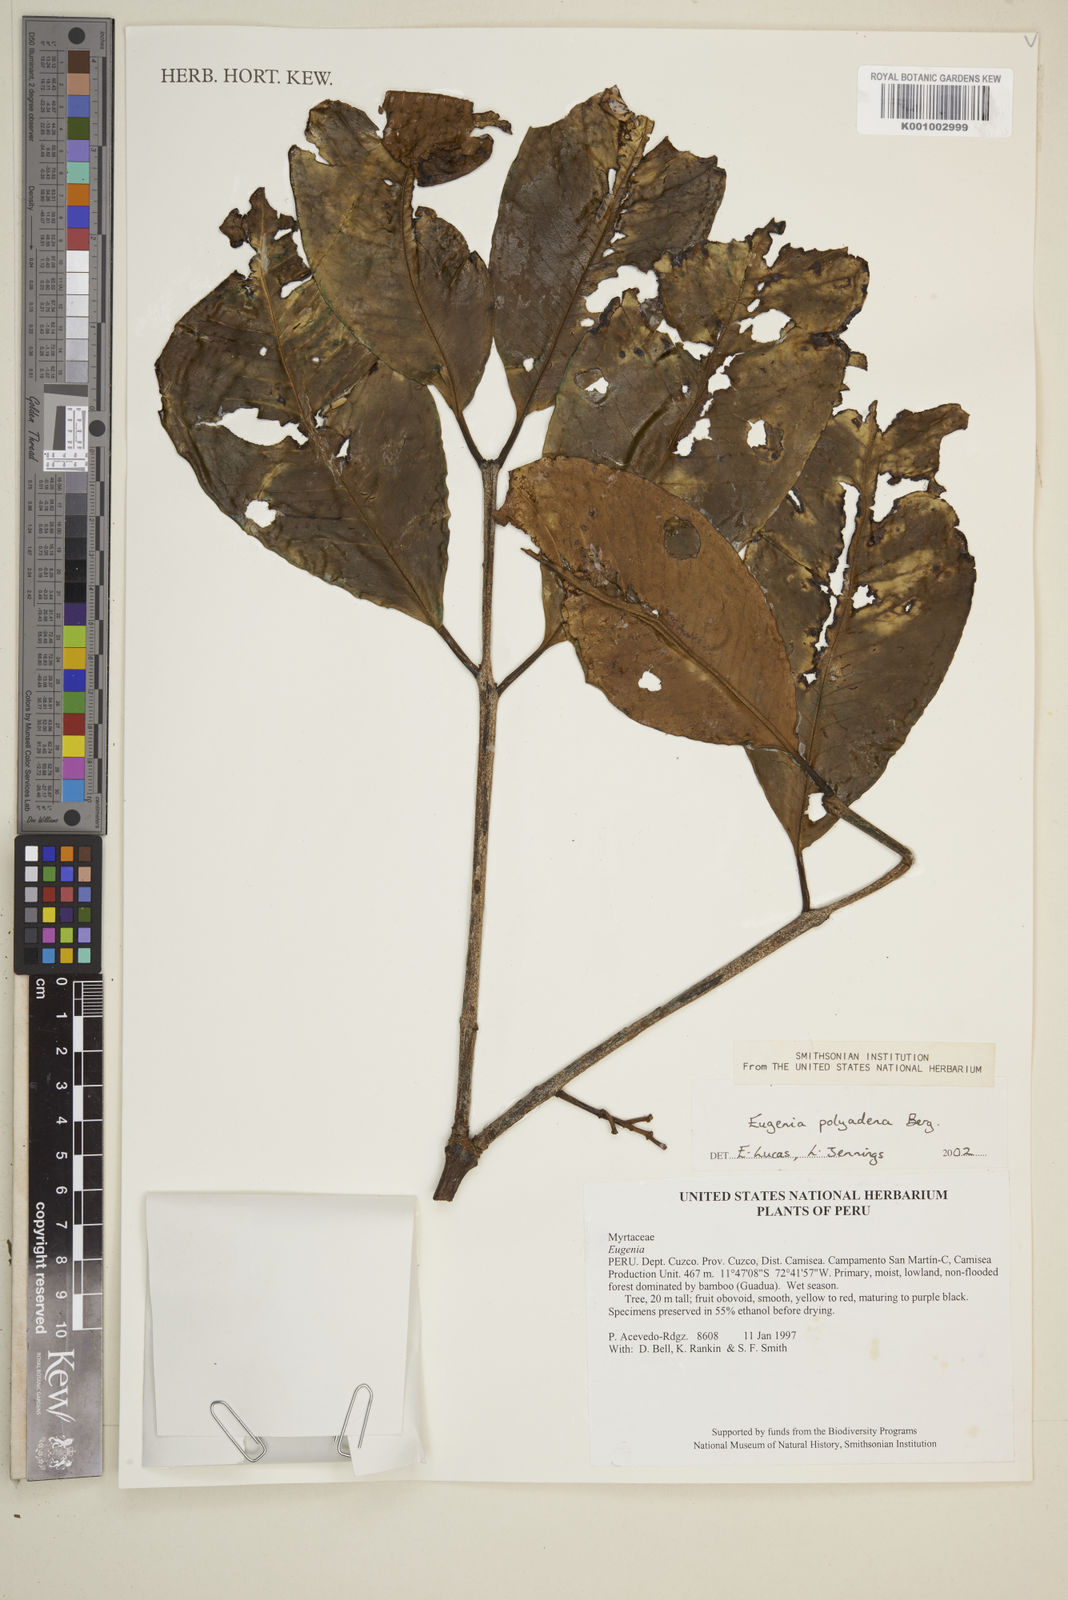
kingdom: Plantae
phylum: Tracheophyta
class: Magnoliopsida
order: Myrtales
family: Myrtaceae
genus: Eugenia
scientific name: Eugenia polyadena
